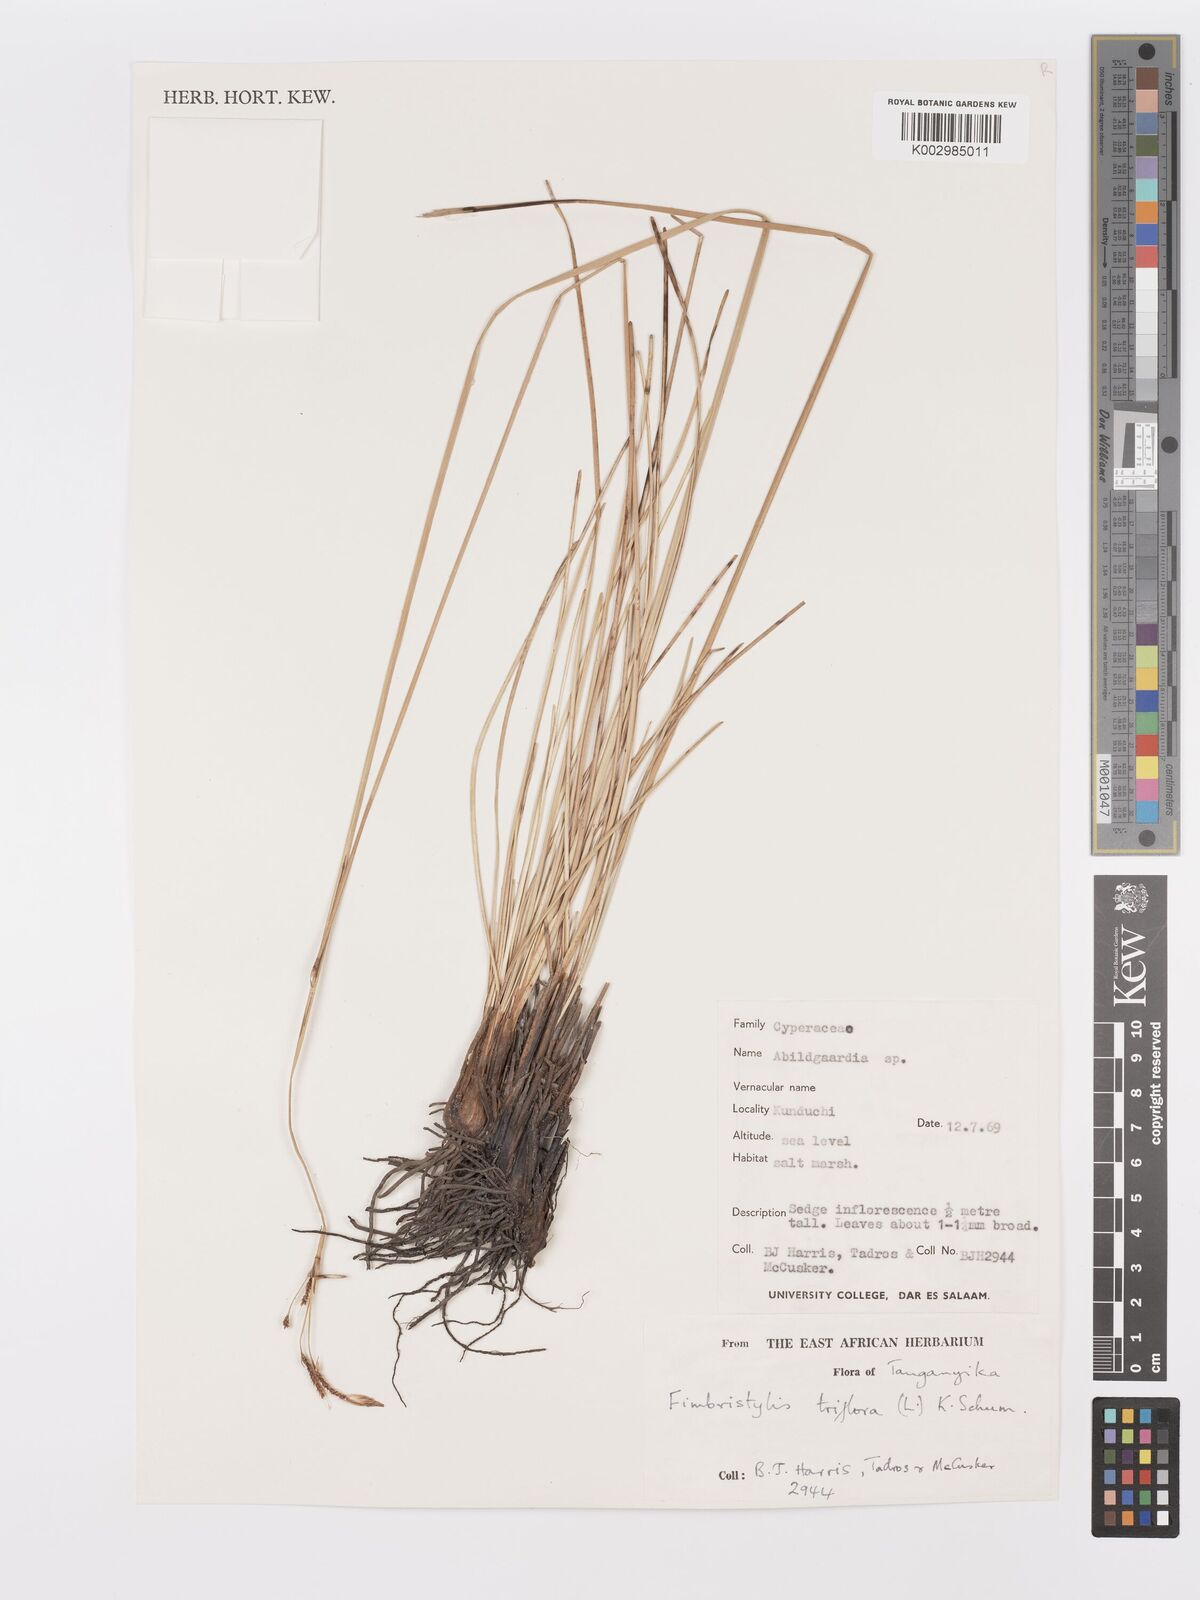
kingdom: Plantae
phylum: Tracheophyta
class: Liliopsida
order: Poales
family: Cyperaceae
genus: Abildgaardia
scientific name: Abildgaardia triflora
